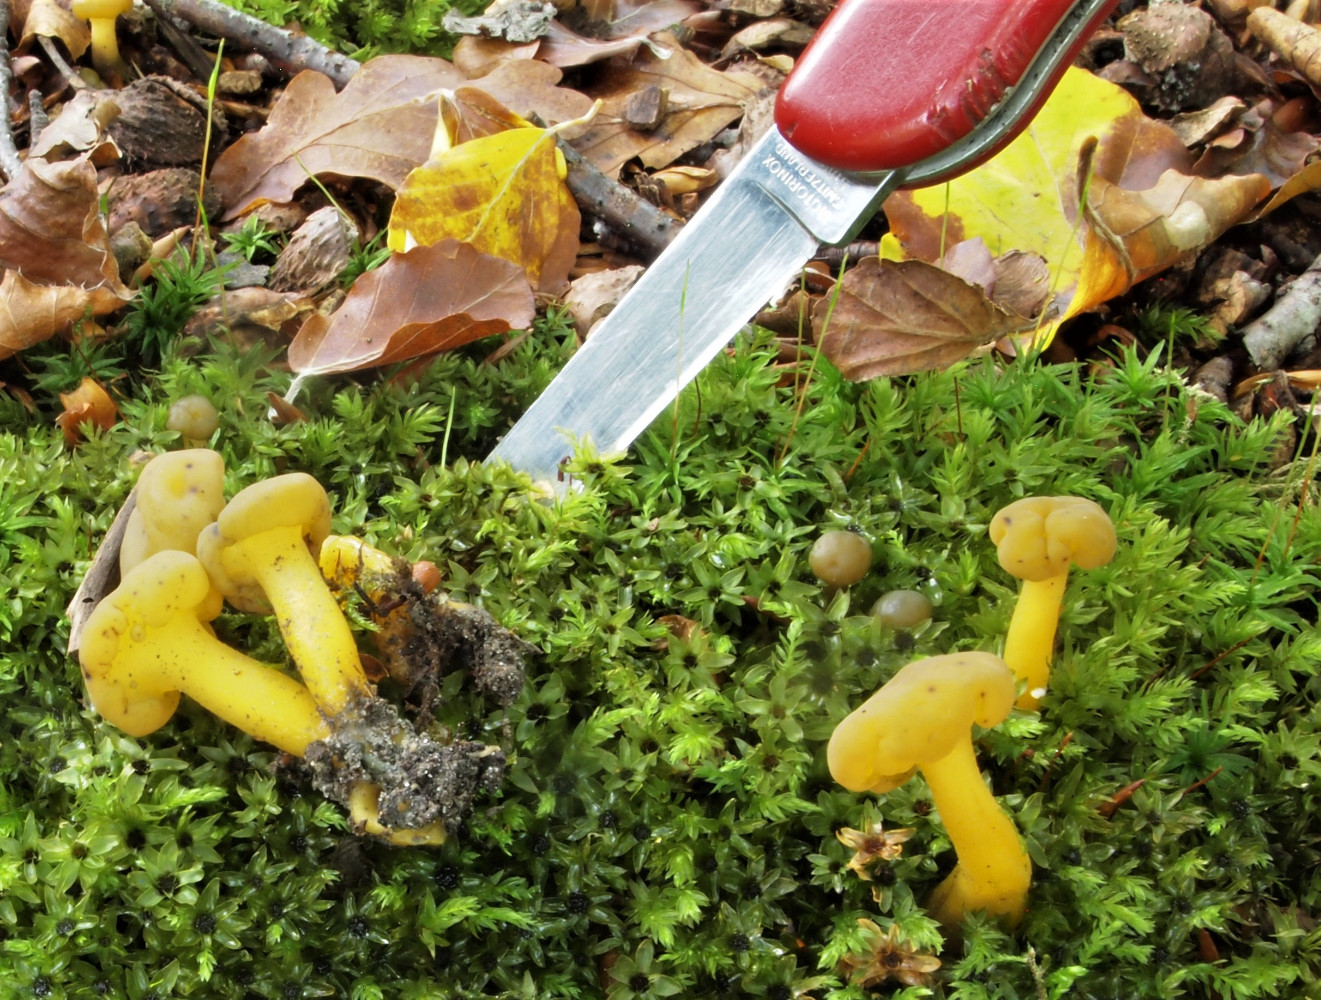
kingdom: Fungi
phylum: Ascomycota
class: Leotiomycetes
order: Leotiales
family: Leotiaceae
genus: Leotia
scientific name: Leotia lubrica
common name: ravsvamp
